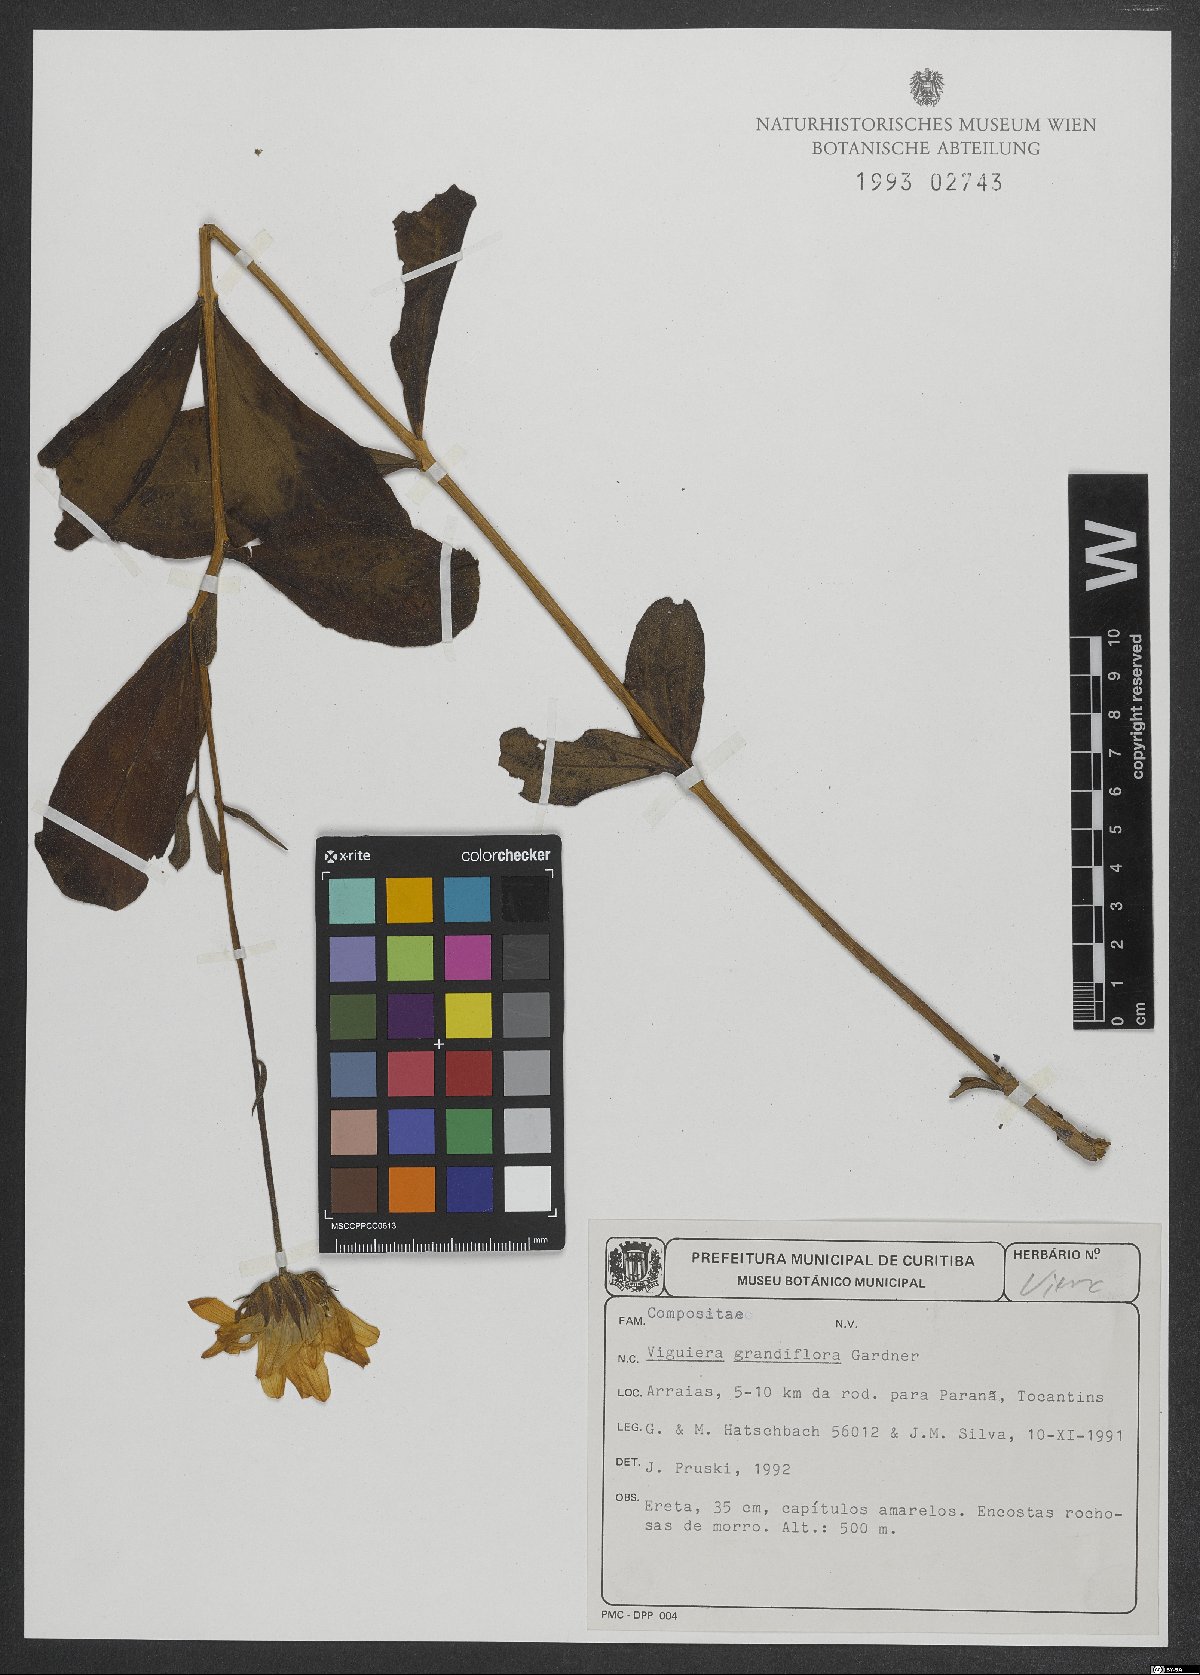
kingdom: Plantae
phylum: Tracheophyta
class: Magnoliopsida
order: Asterales
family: Asteraceae
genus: Aldama
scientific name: Aldama grandiflora
